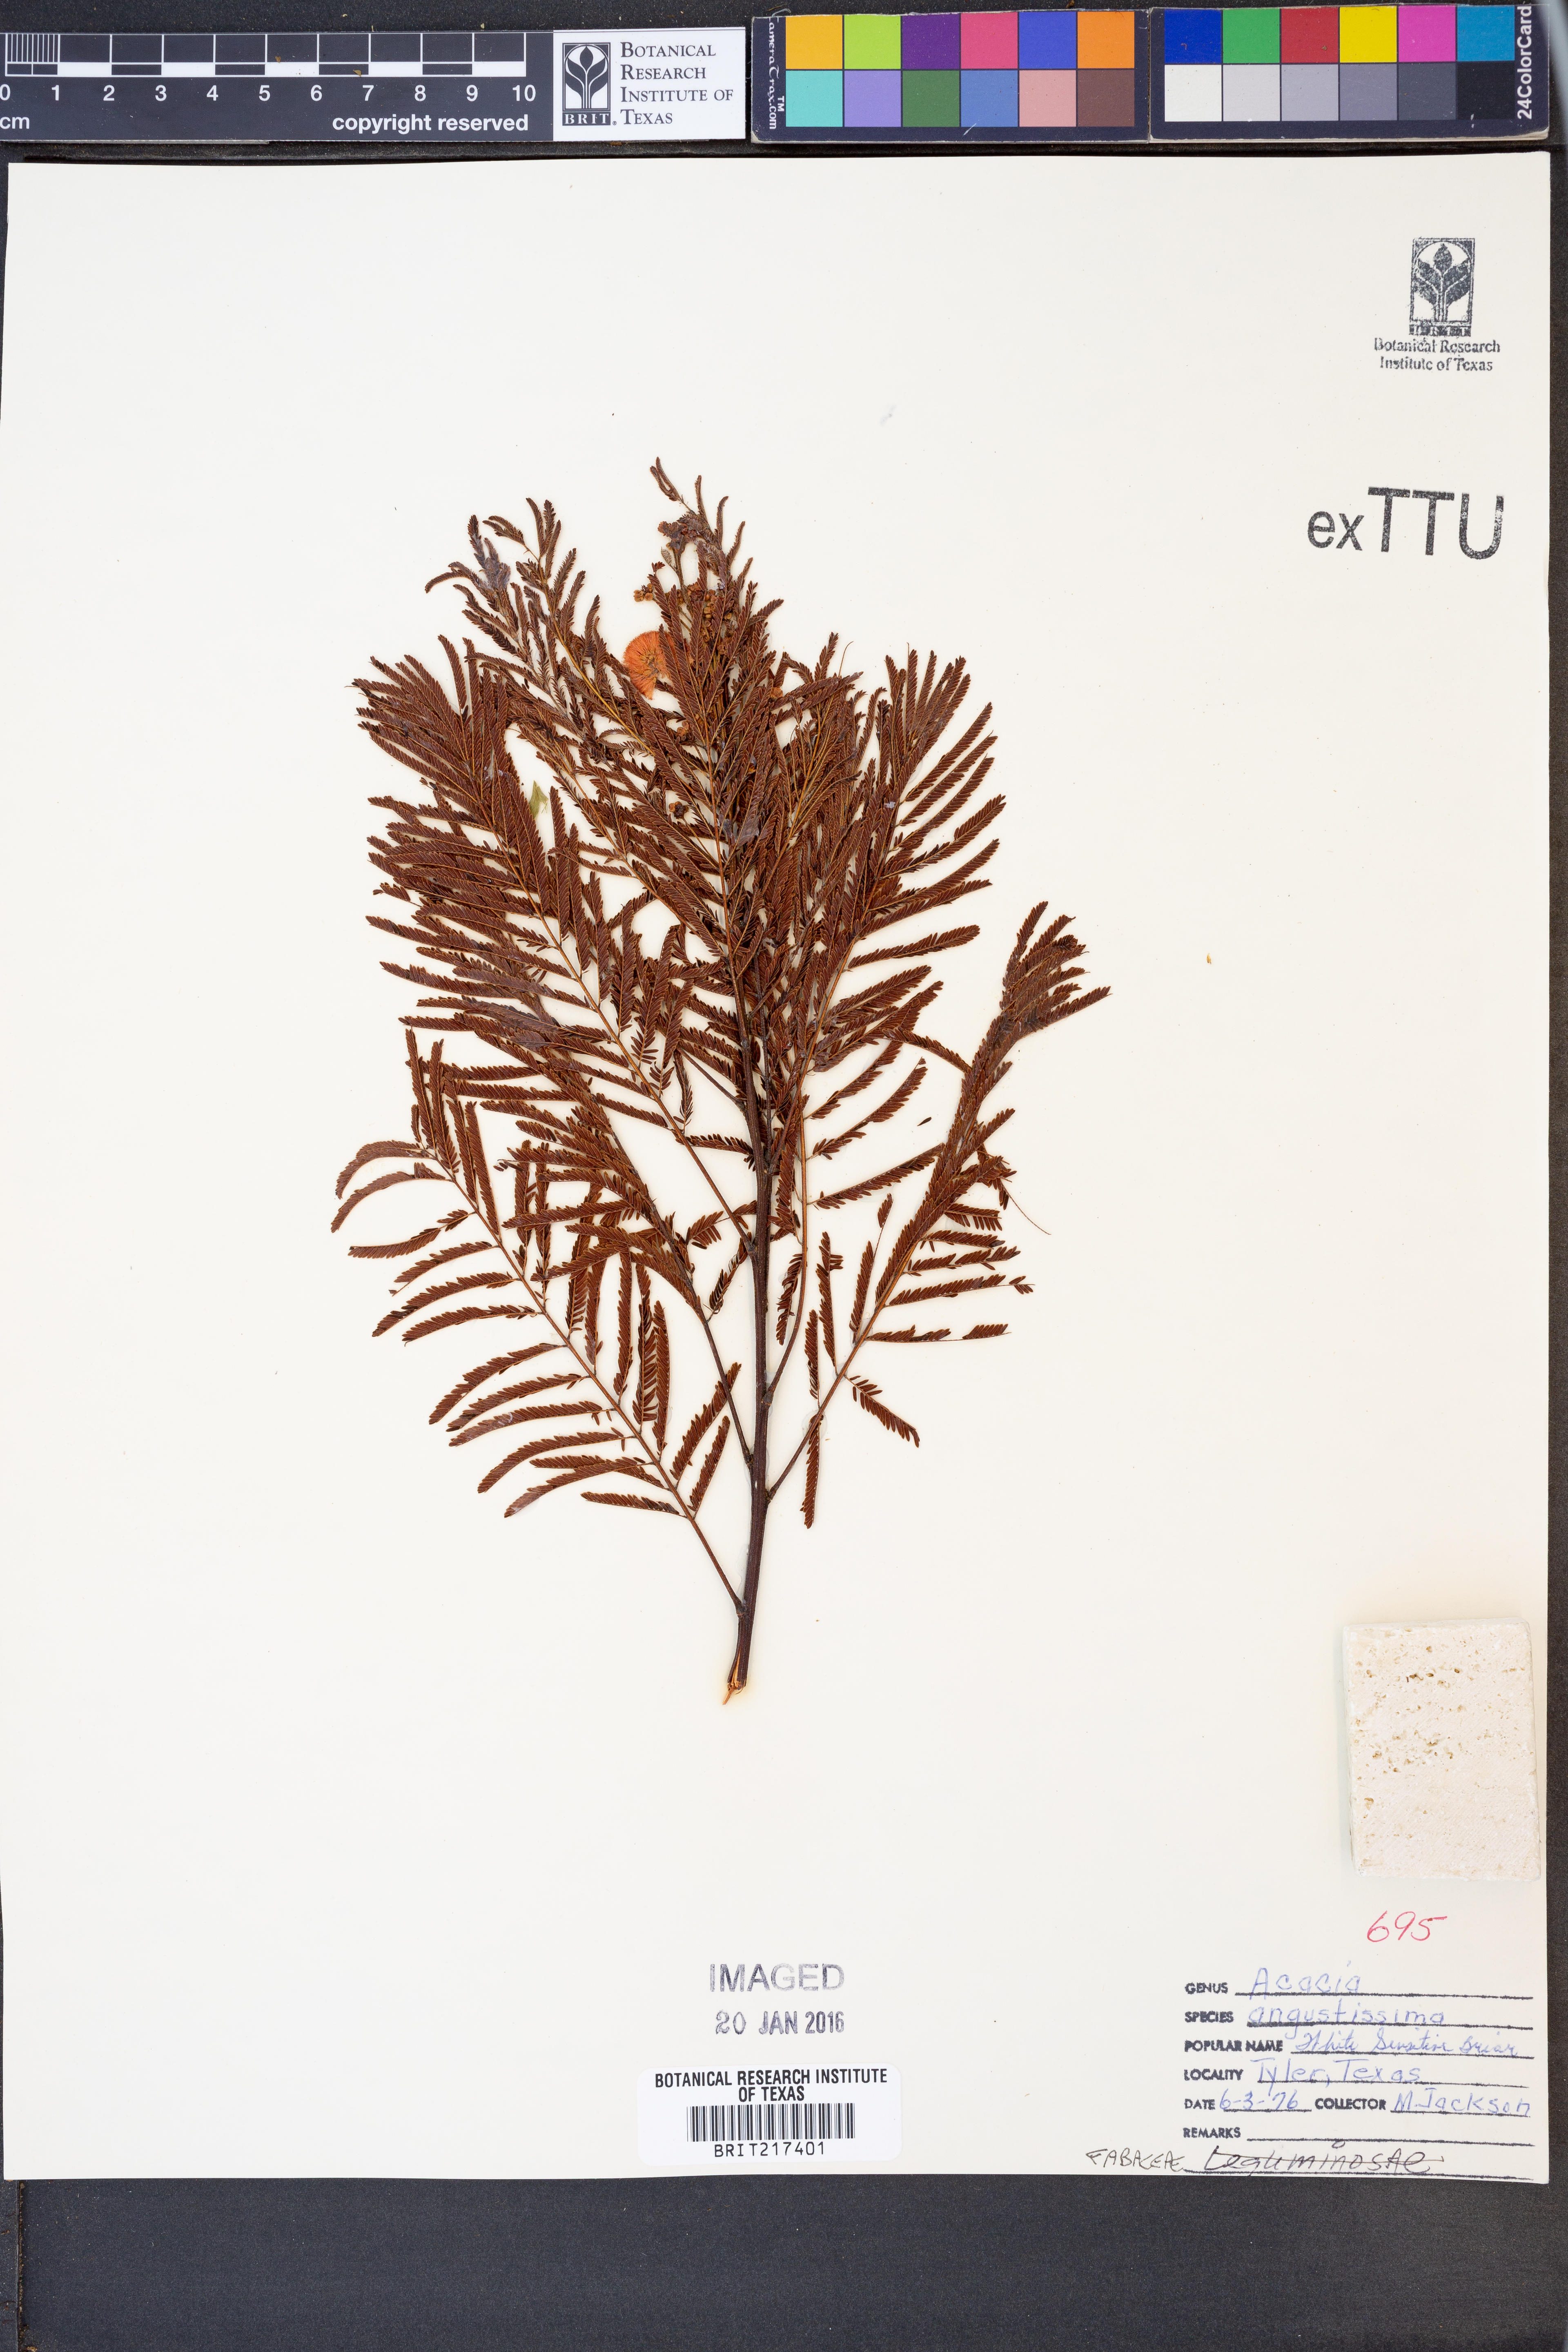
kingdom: Plantae
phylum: Tracheophyta
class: Magnoliopsida
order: Fabales
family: Fabaceae
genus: Acaciella
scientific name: Acaciella angustissima
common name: Prairie acacia
